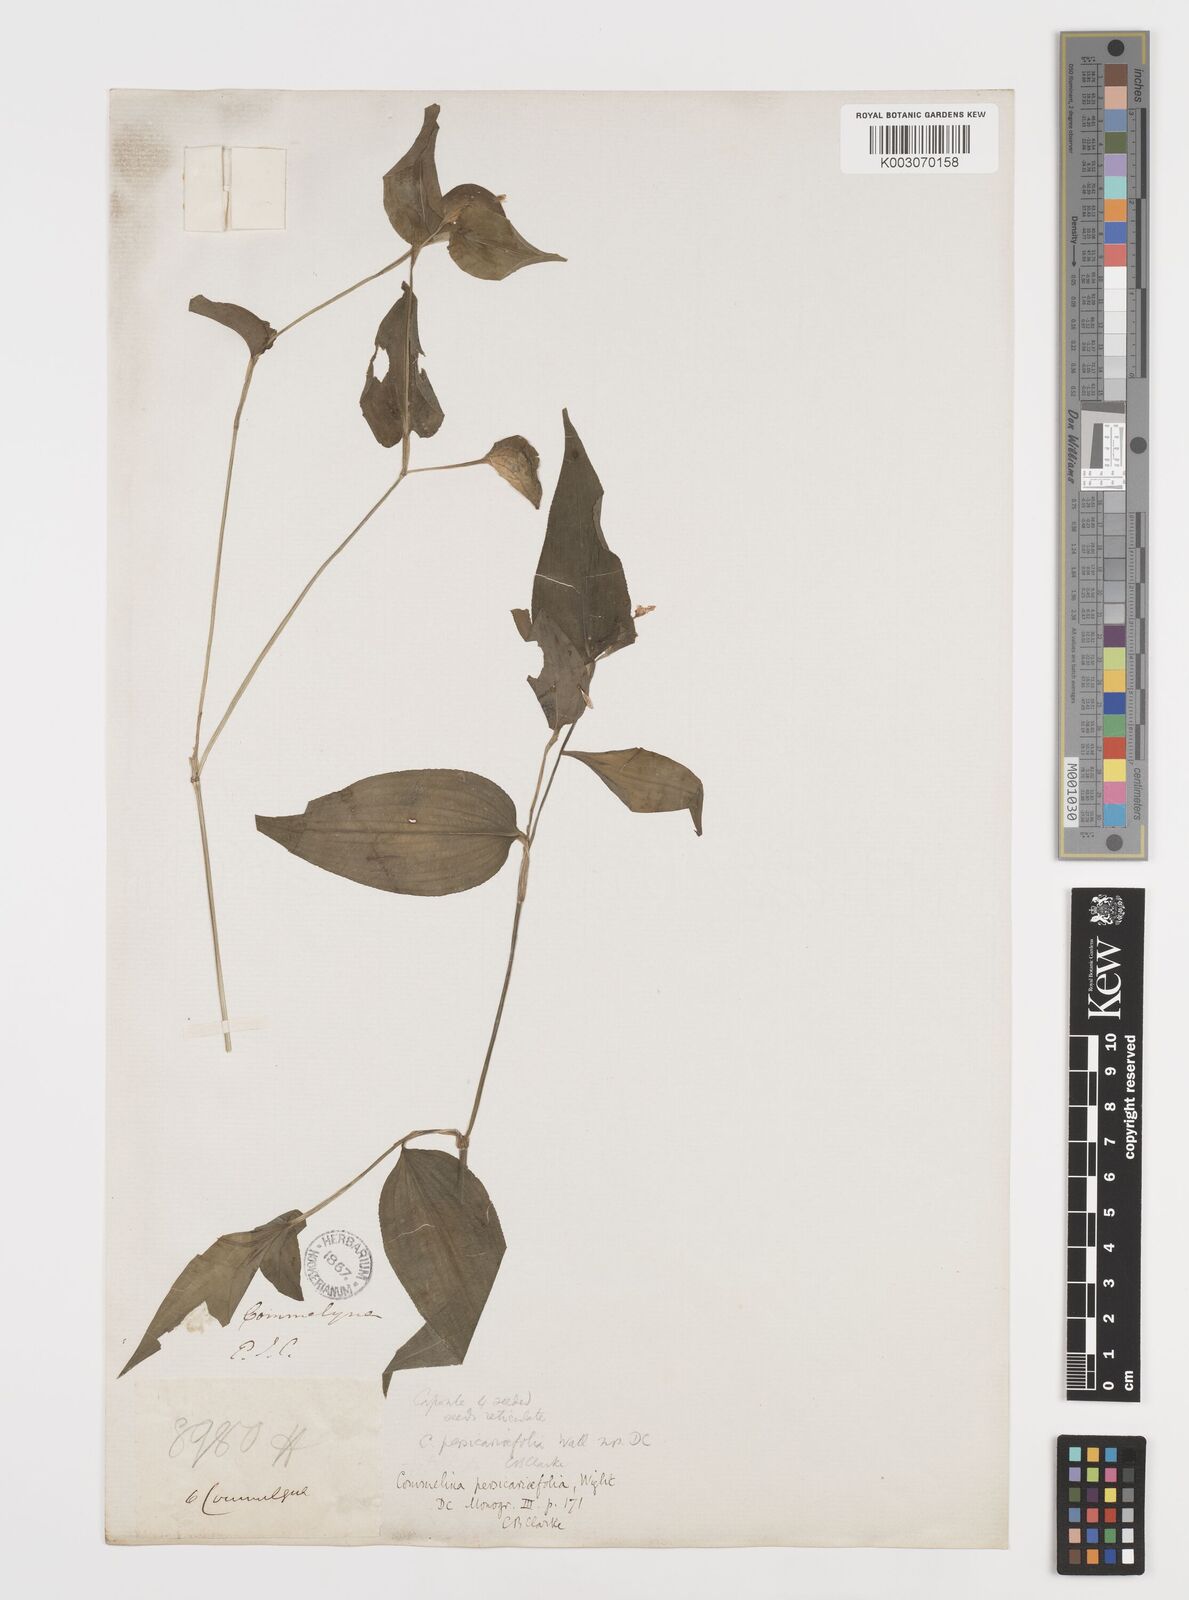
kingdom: Plantae
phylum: Tracheophyta
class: Liliopsida
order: Commelinales
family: Commelinaceae
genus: Commelina
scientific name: Commelina petersii
